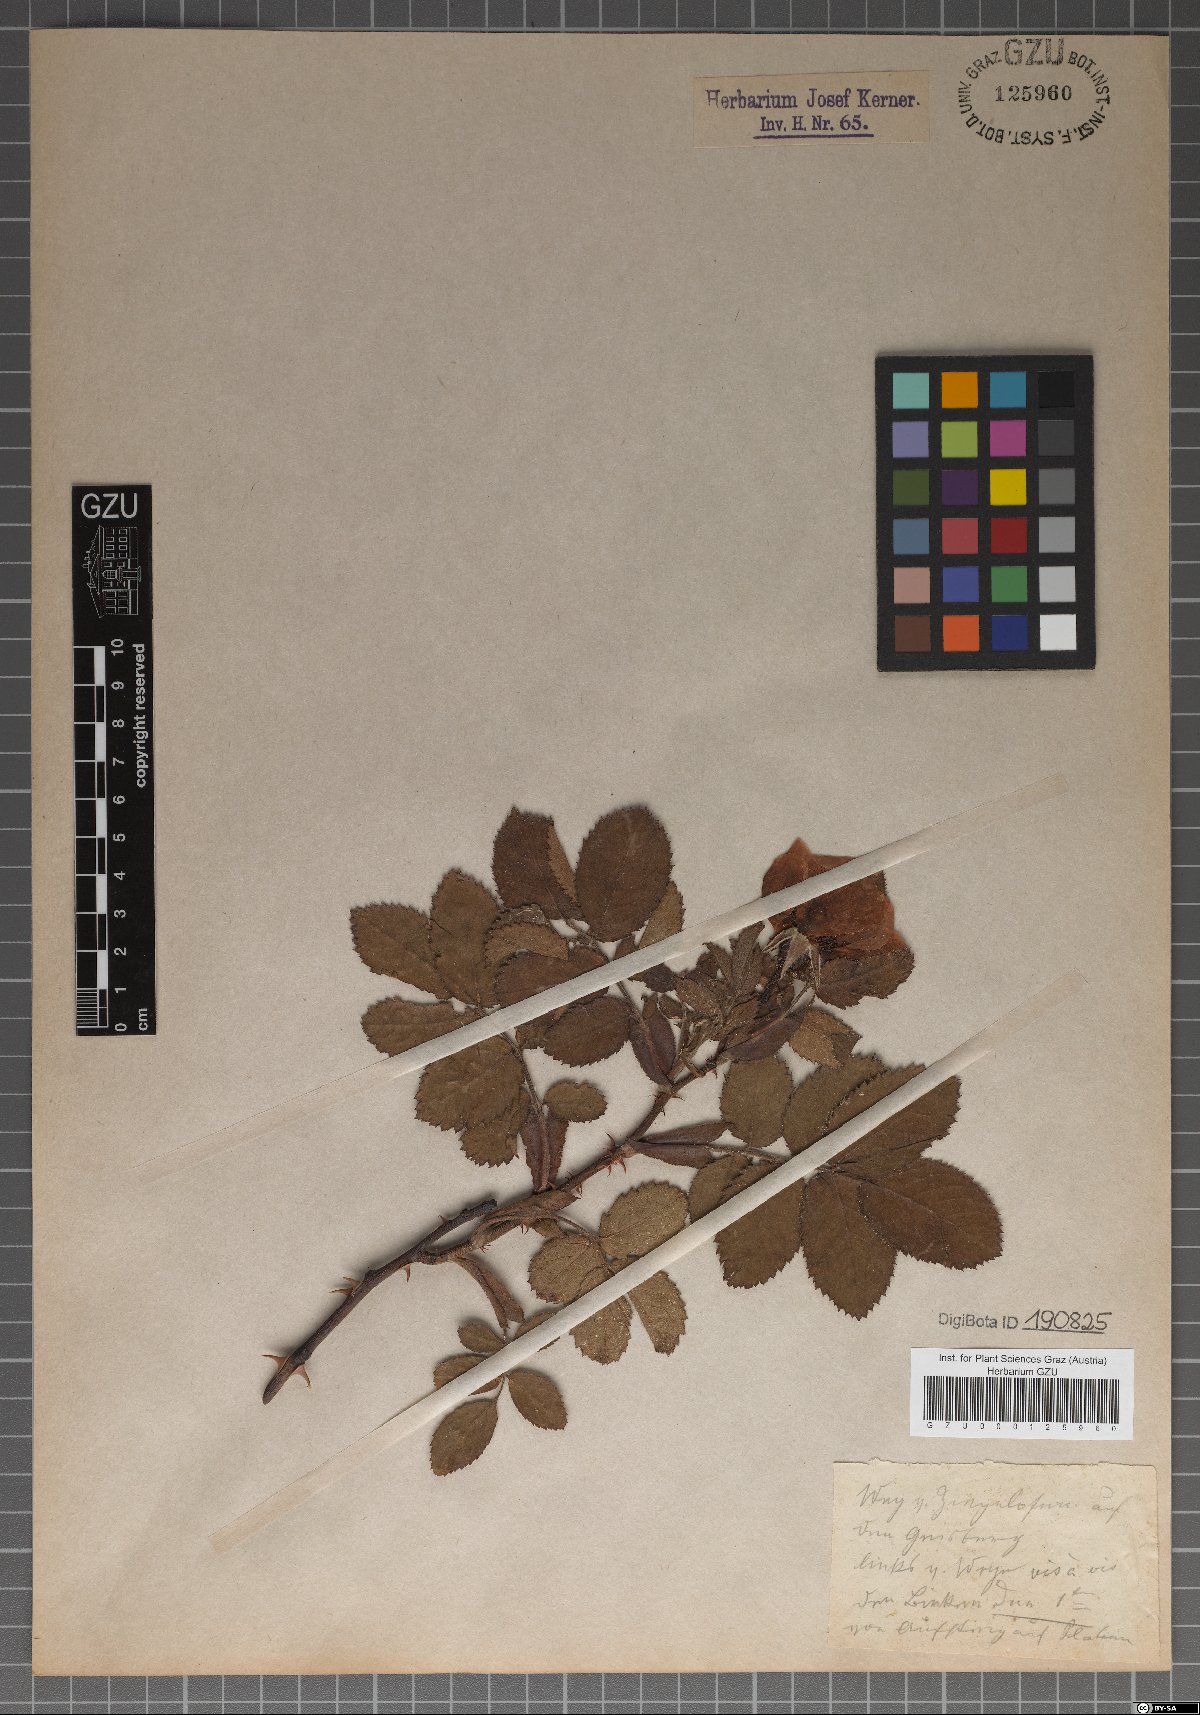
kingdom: Plantae
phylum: Tracheophyta
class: Magnoliopsida
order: Rosales
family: Rosaceae
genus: Rosa
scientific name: Rosa mollis
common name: Rose
